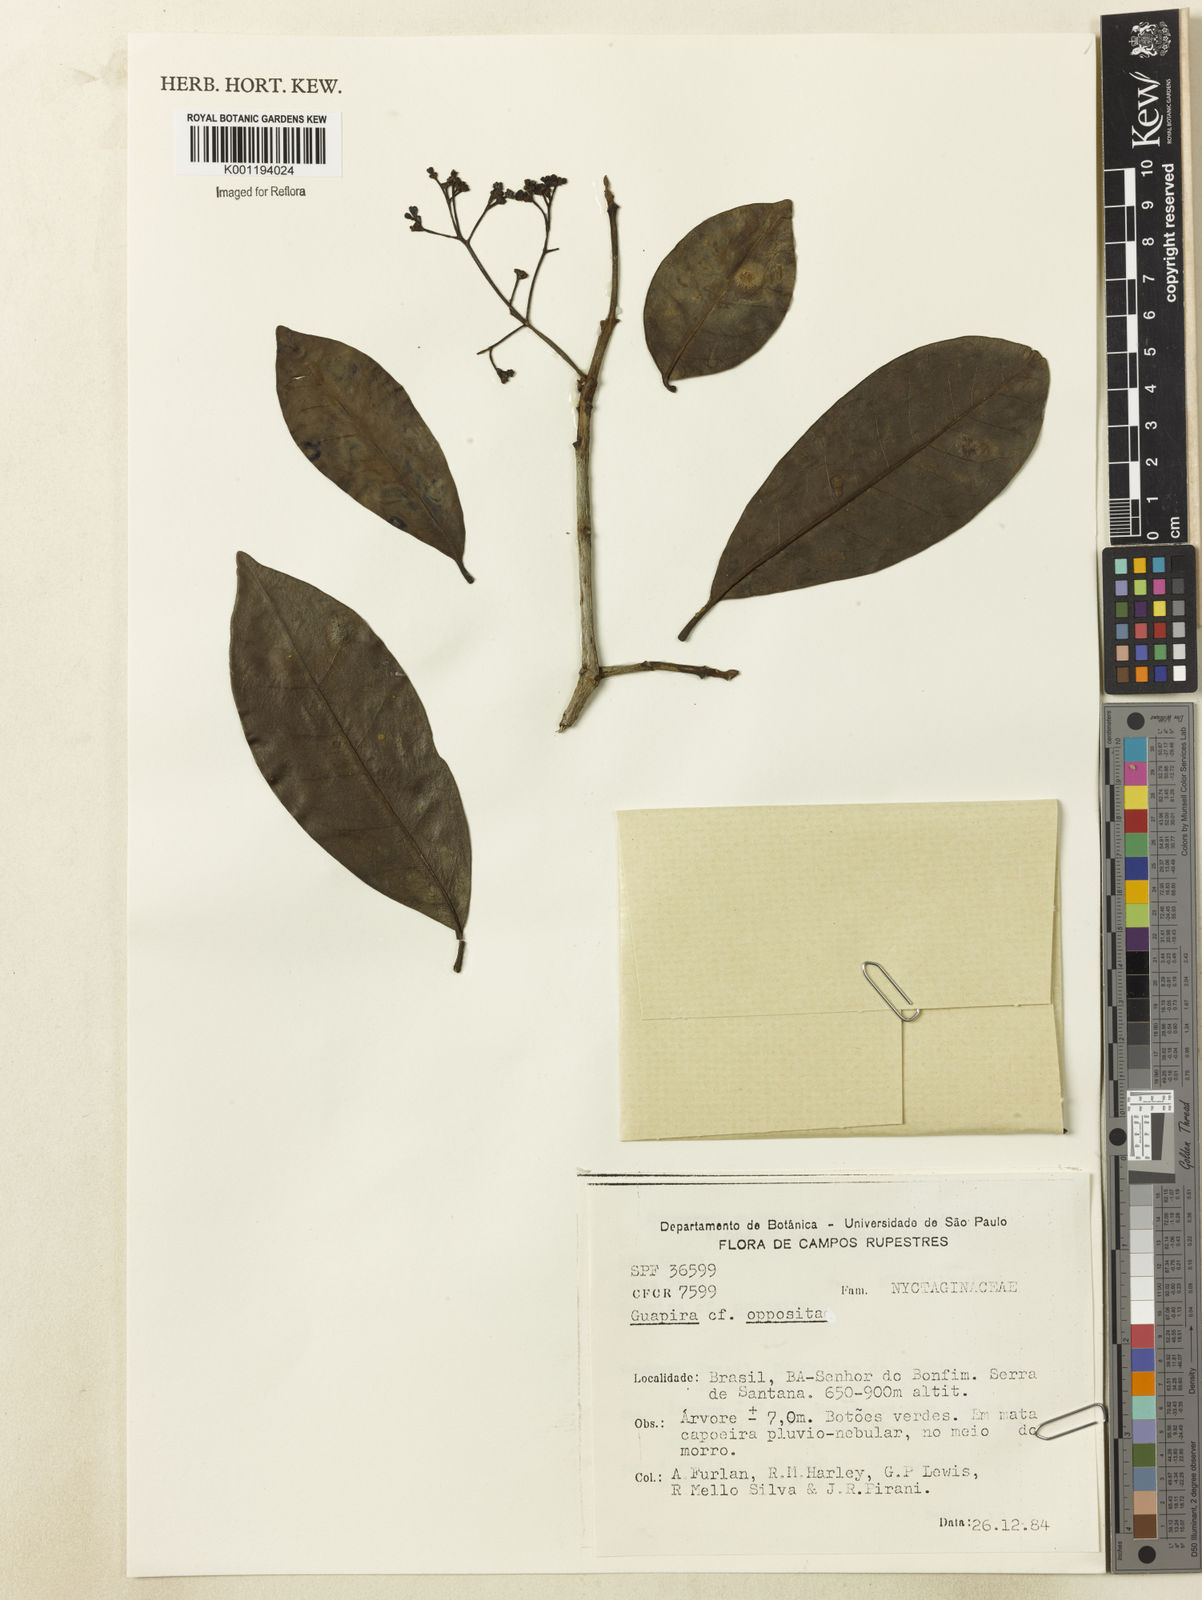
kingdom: Plantae
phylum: Tracheophyta
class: Magnoliopsida
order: Caryophyllales
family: Nyctaginaceae
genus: Guapira
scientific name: Guapira opposita
